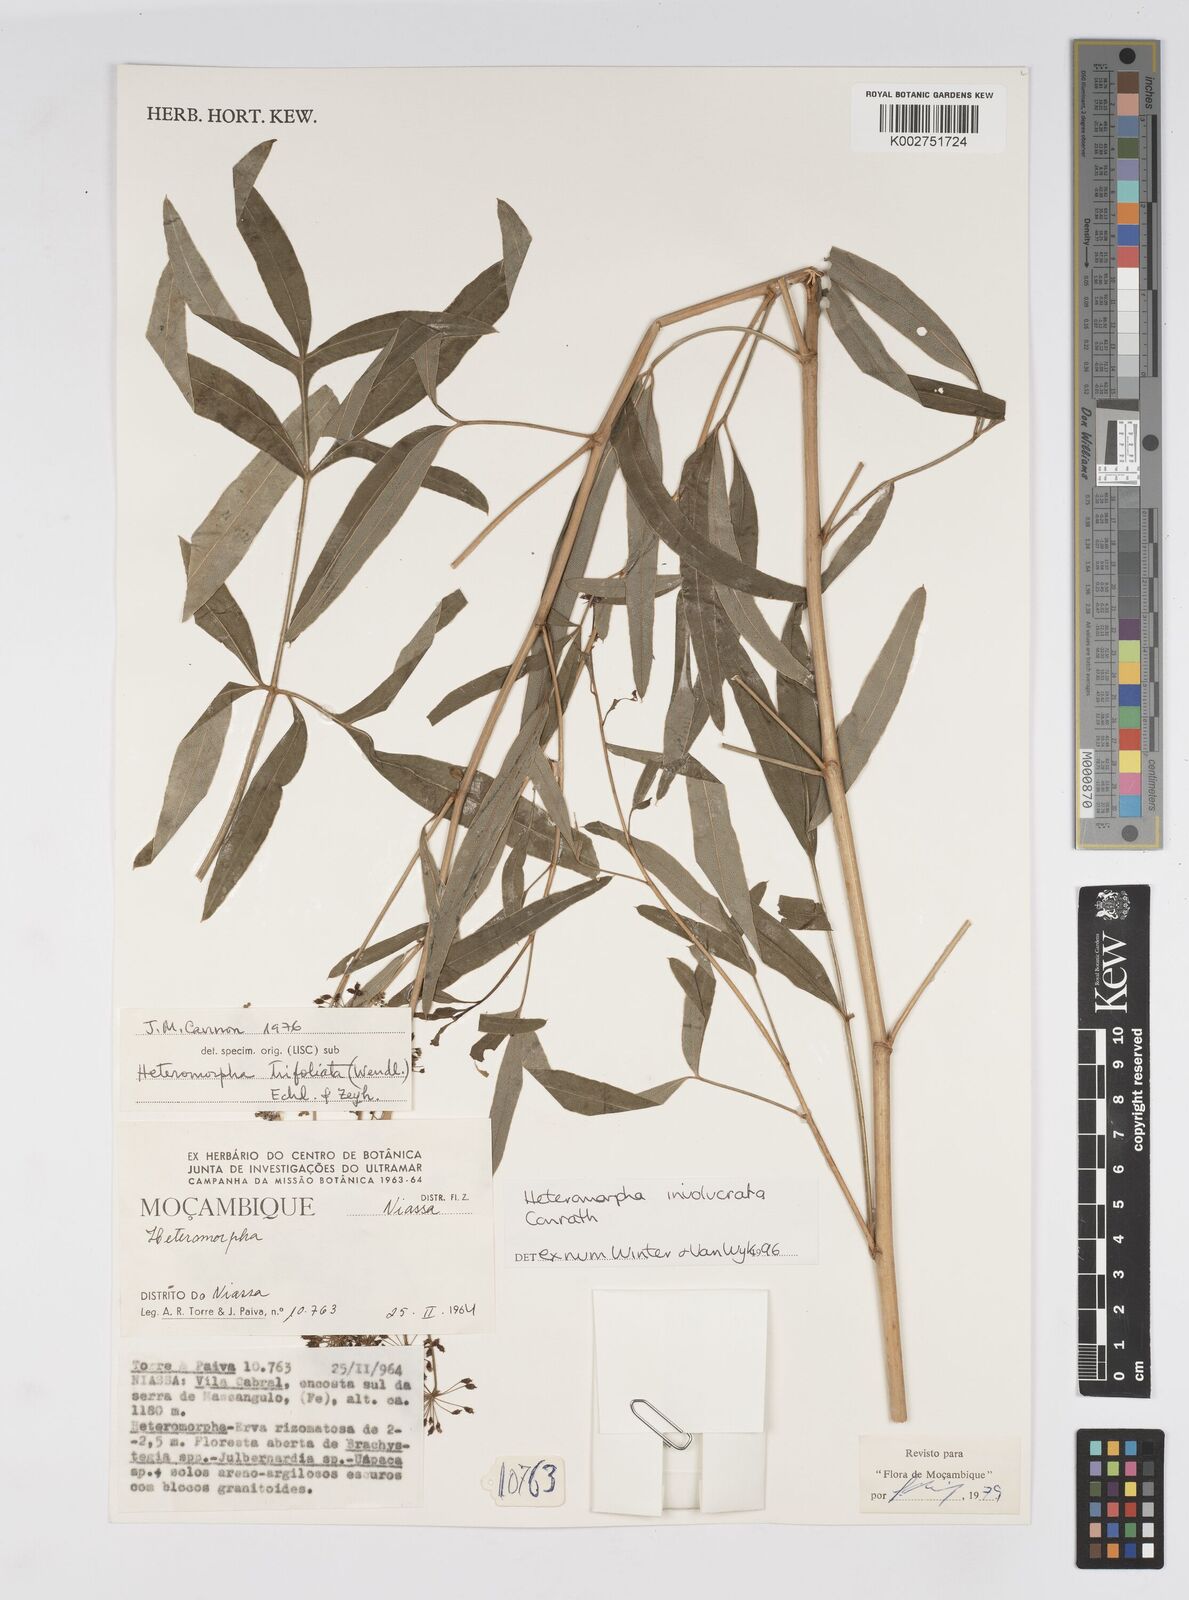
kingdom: Plantae
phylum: Tracheophyta
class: Magnoliopsida
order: Apiales
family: Apiaceae
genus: Heteromorpha
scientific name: Heteromorpha involucrata
